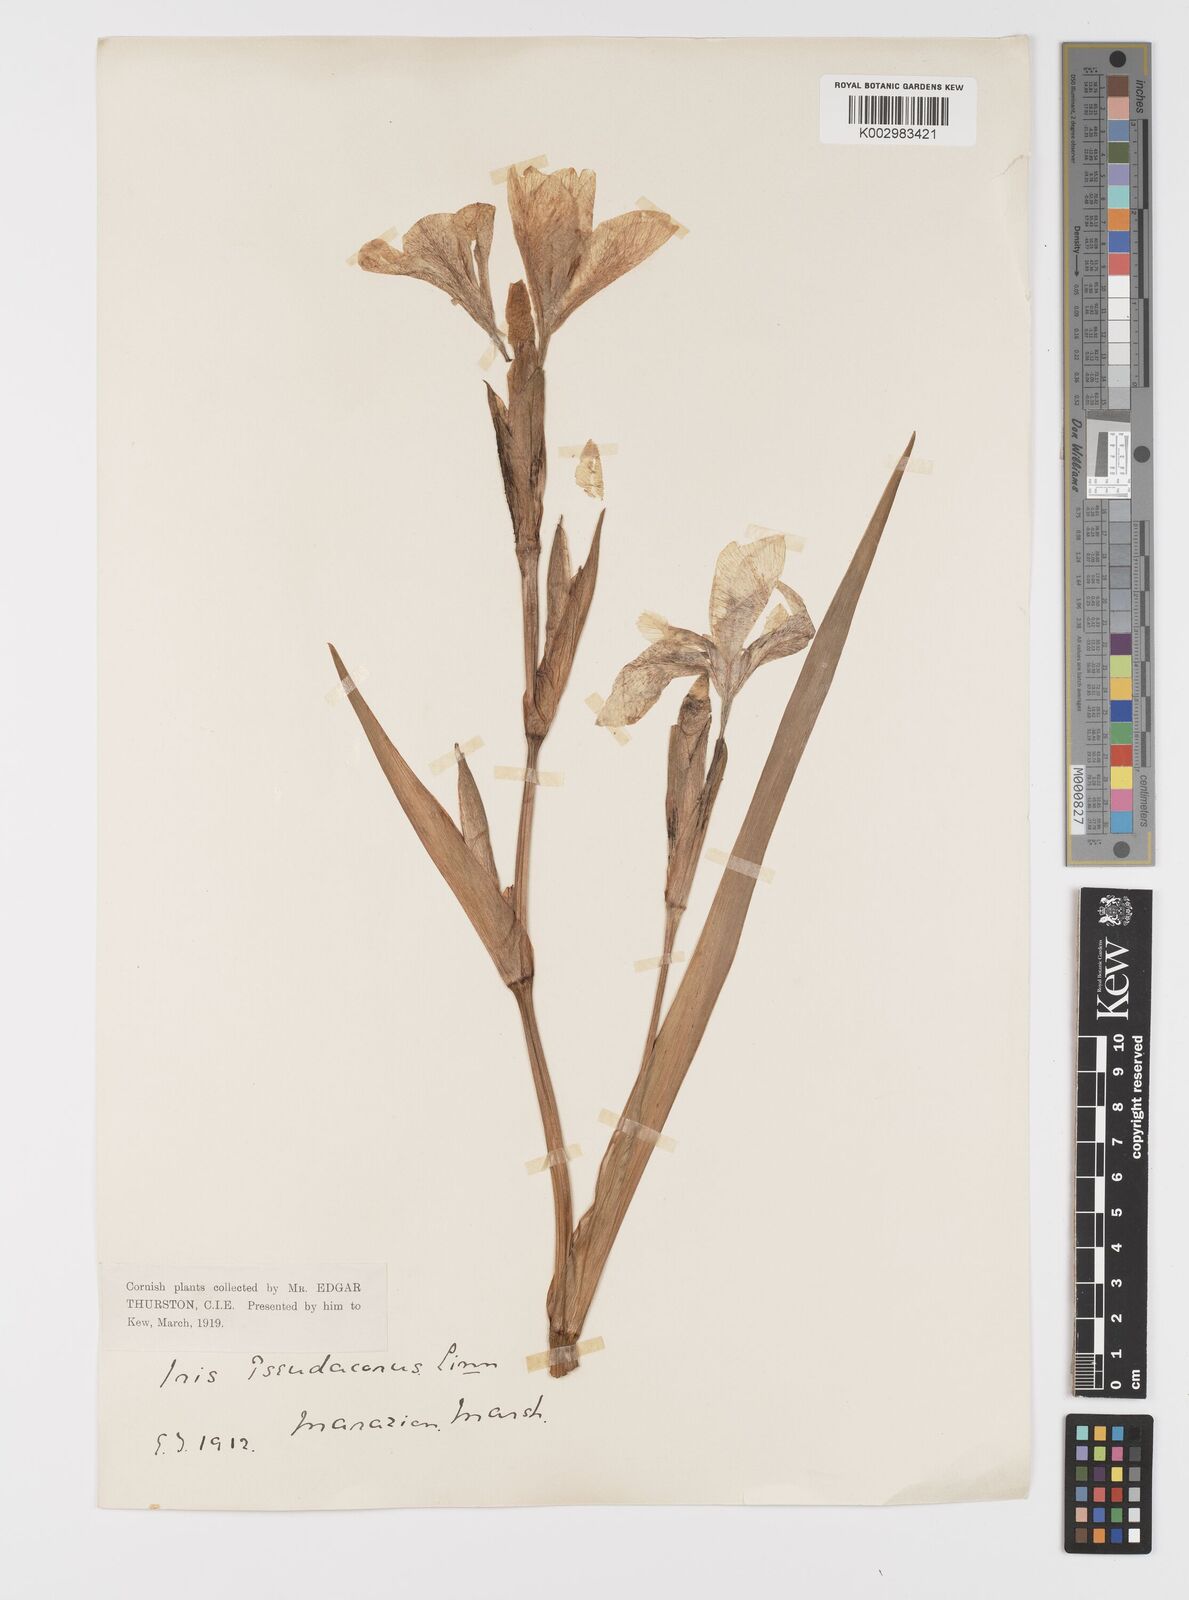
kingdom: Plantae
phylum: Tracheophyta
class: Liliopsida
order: Asparagales
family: Iridaceae
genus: Iris
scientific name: Iris pseudacorus
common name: Yellow flag
